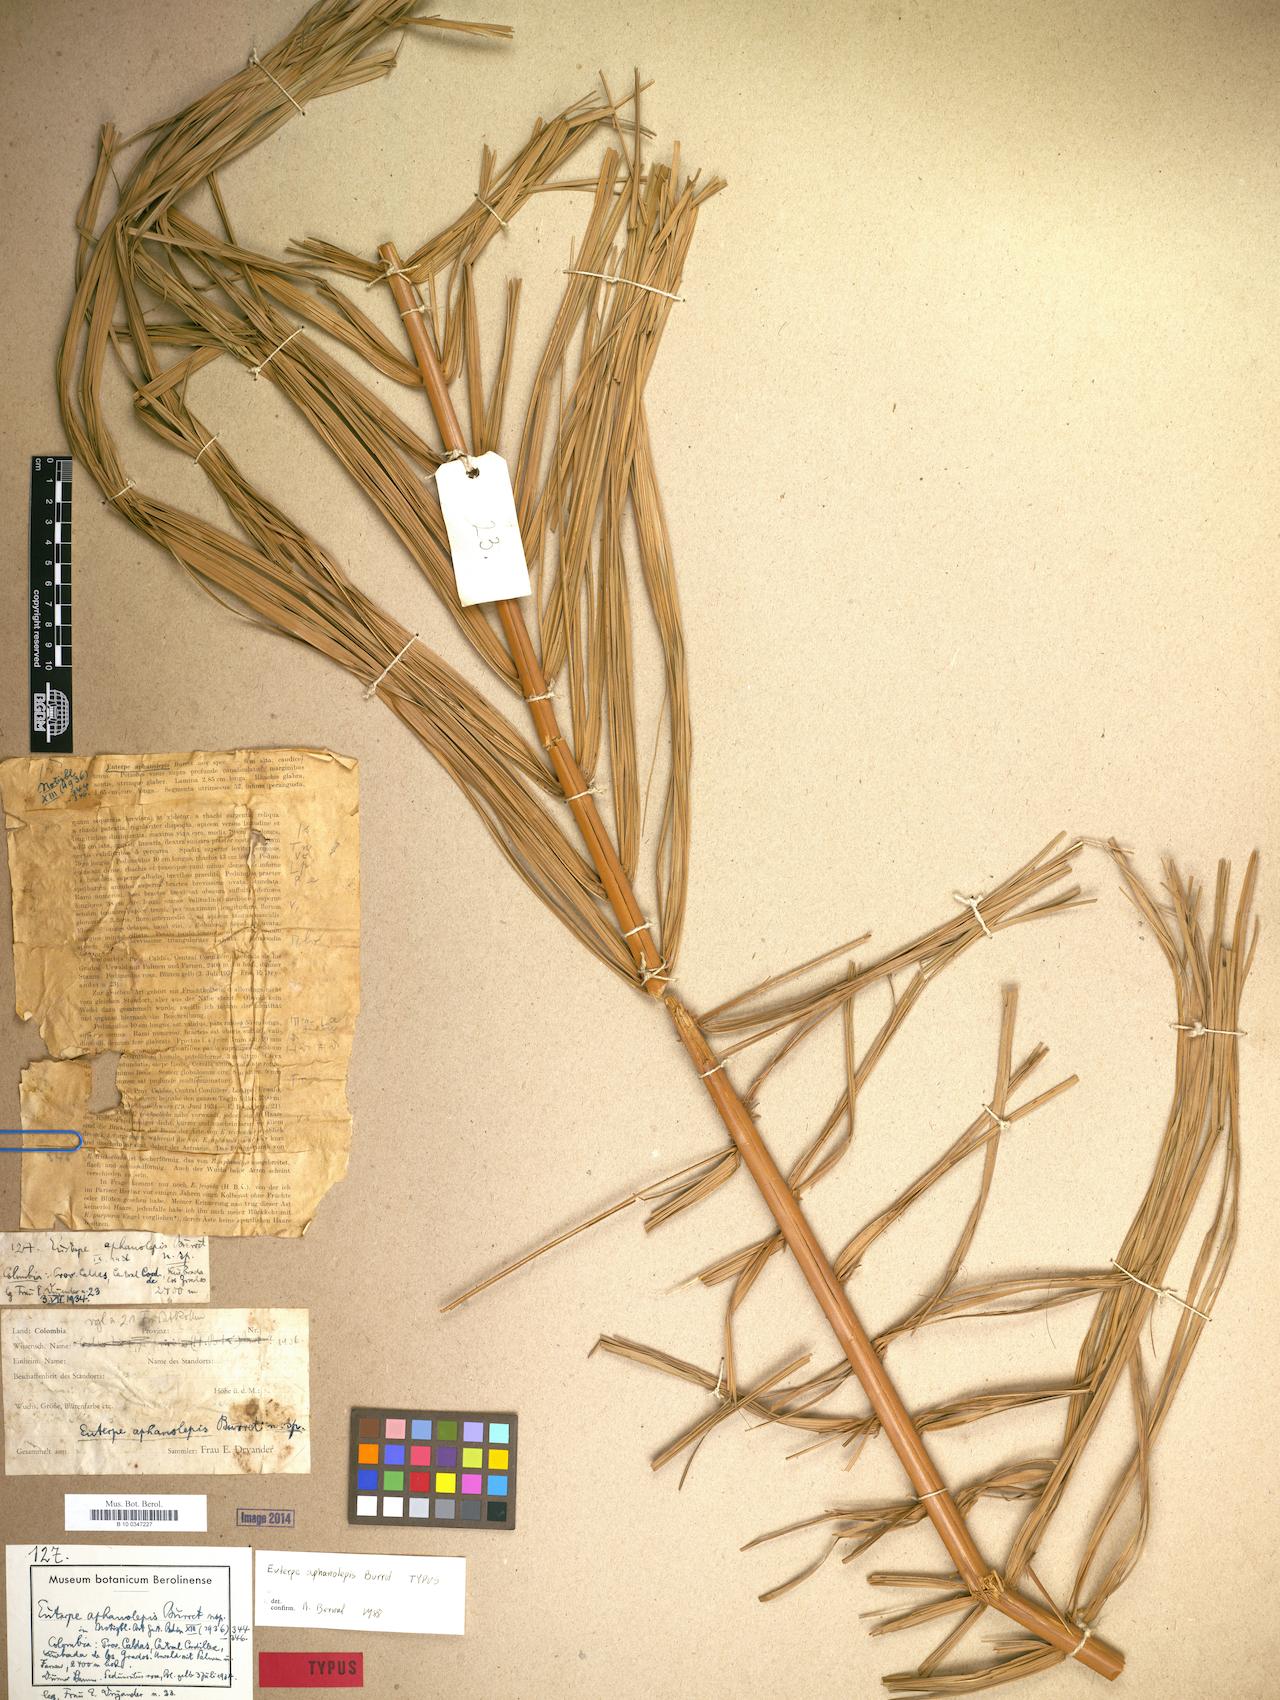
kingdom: Plantae
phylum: Tracheophyta
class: Liliopsida
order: Arecales
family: Arecaceae
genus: Prestoea
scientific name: Prestoea acuminata
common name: Sierran palm
